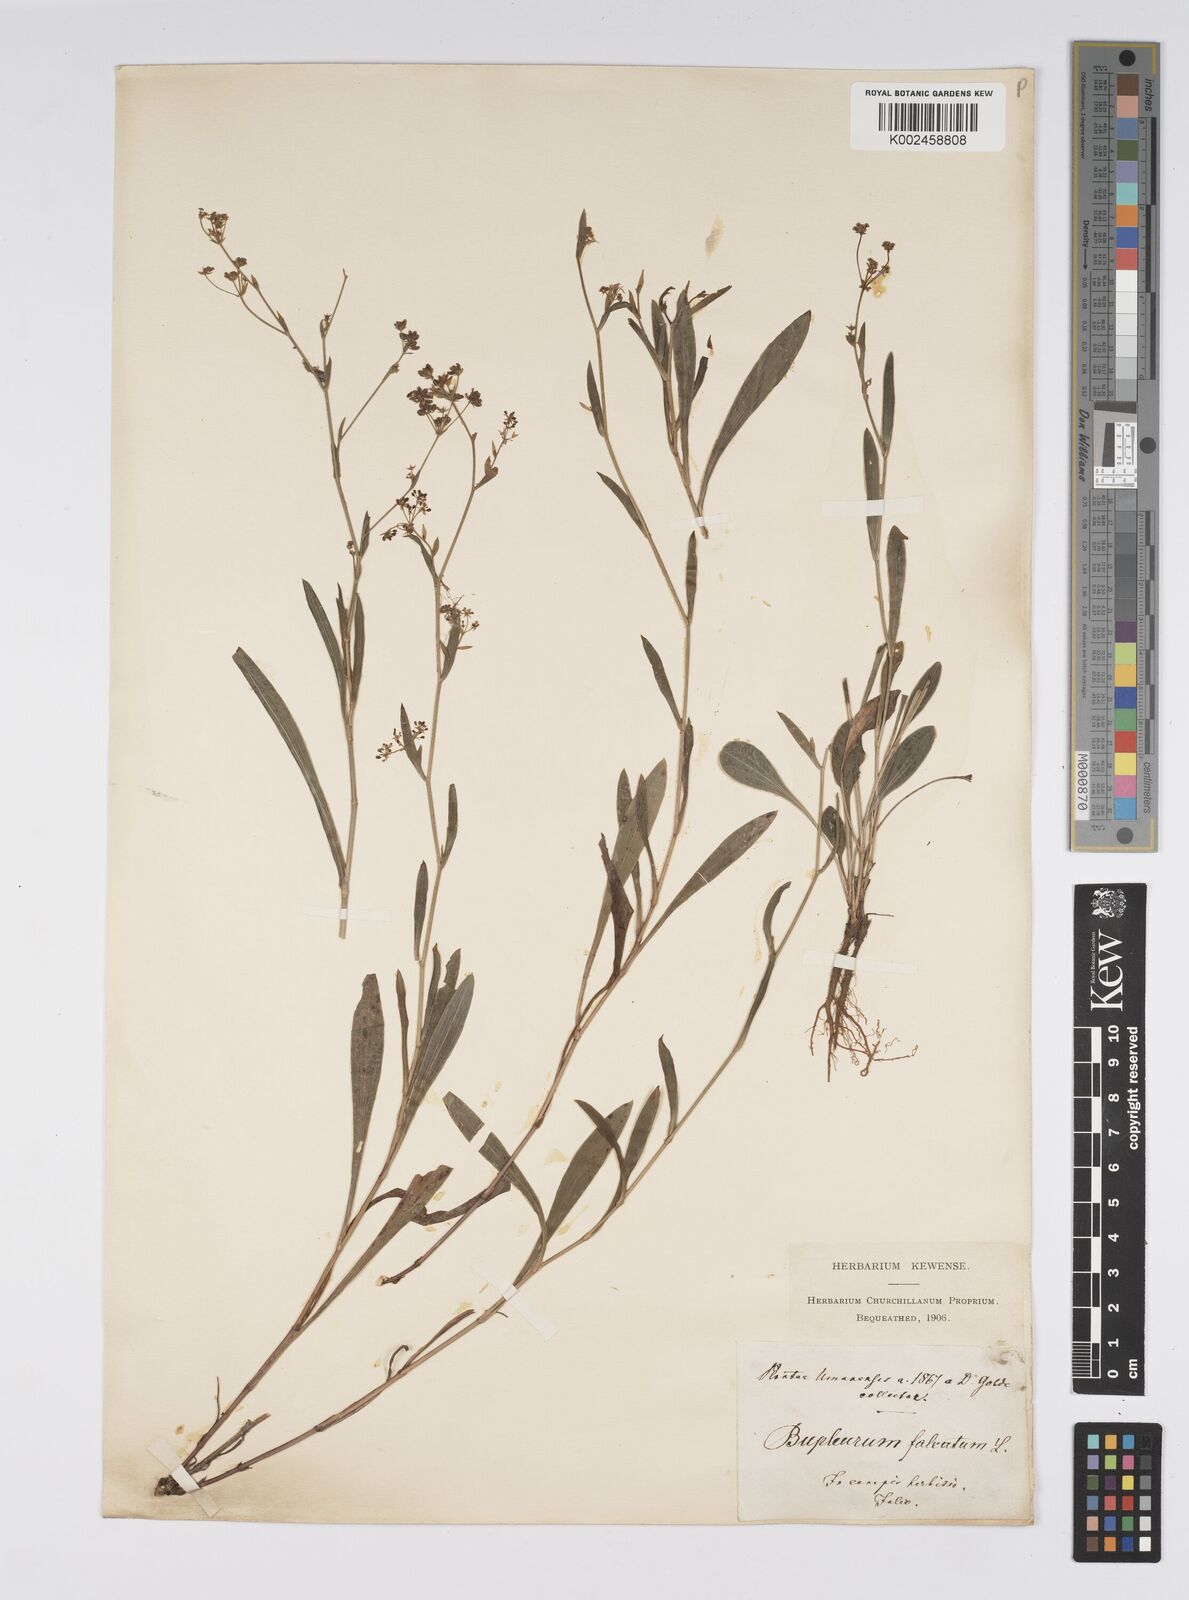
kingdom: Plantae
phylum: Tracheophyta
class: Magnoliopsida
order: Apiales
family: Apiaceae
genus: Bupleurum
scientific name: Bupleurum falcatum
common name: Sickle-leaved hare's-ear
